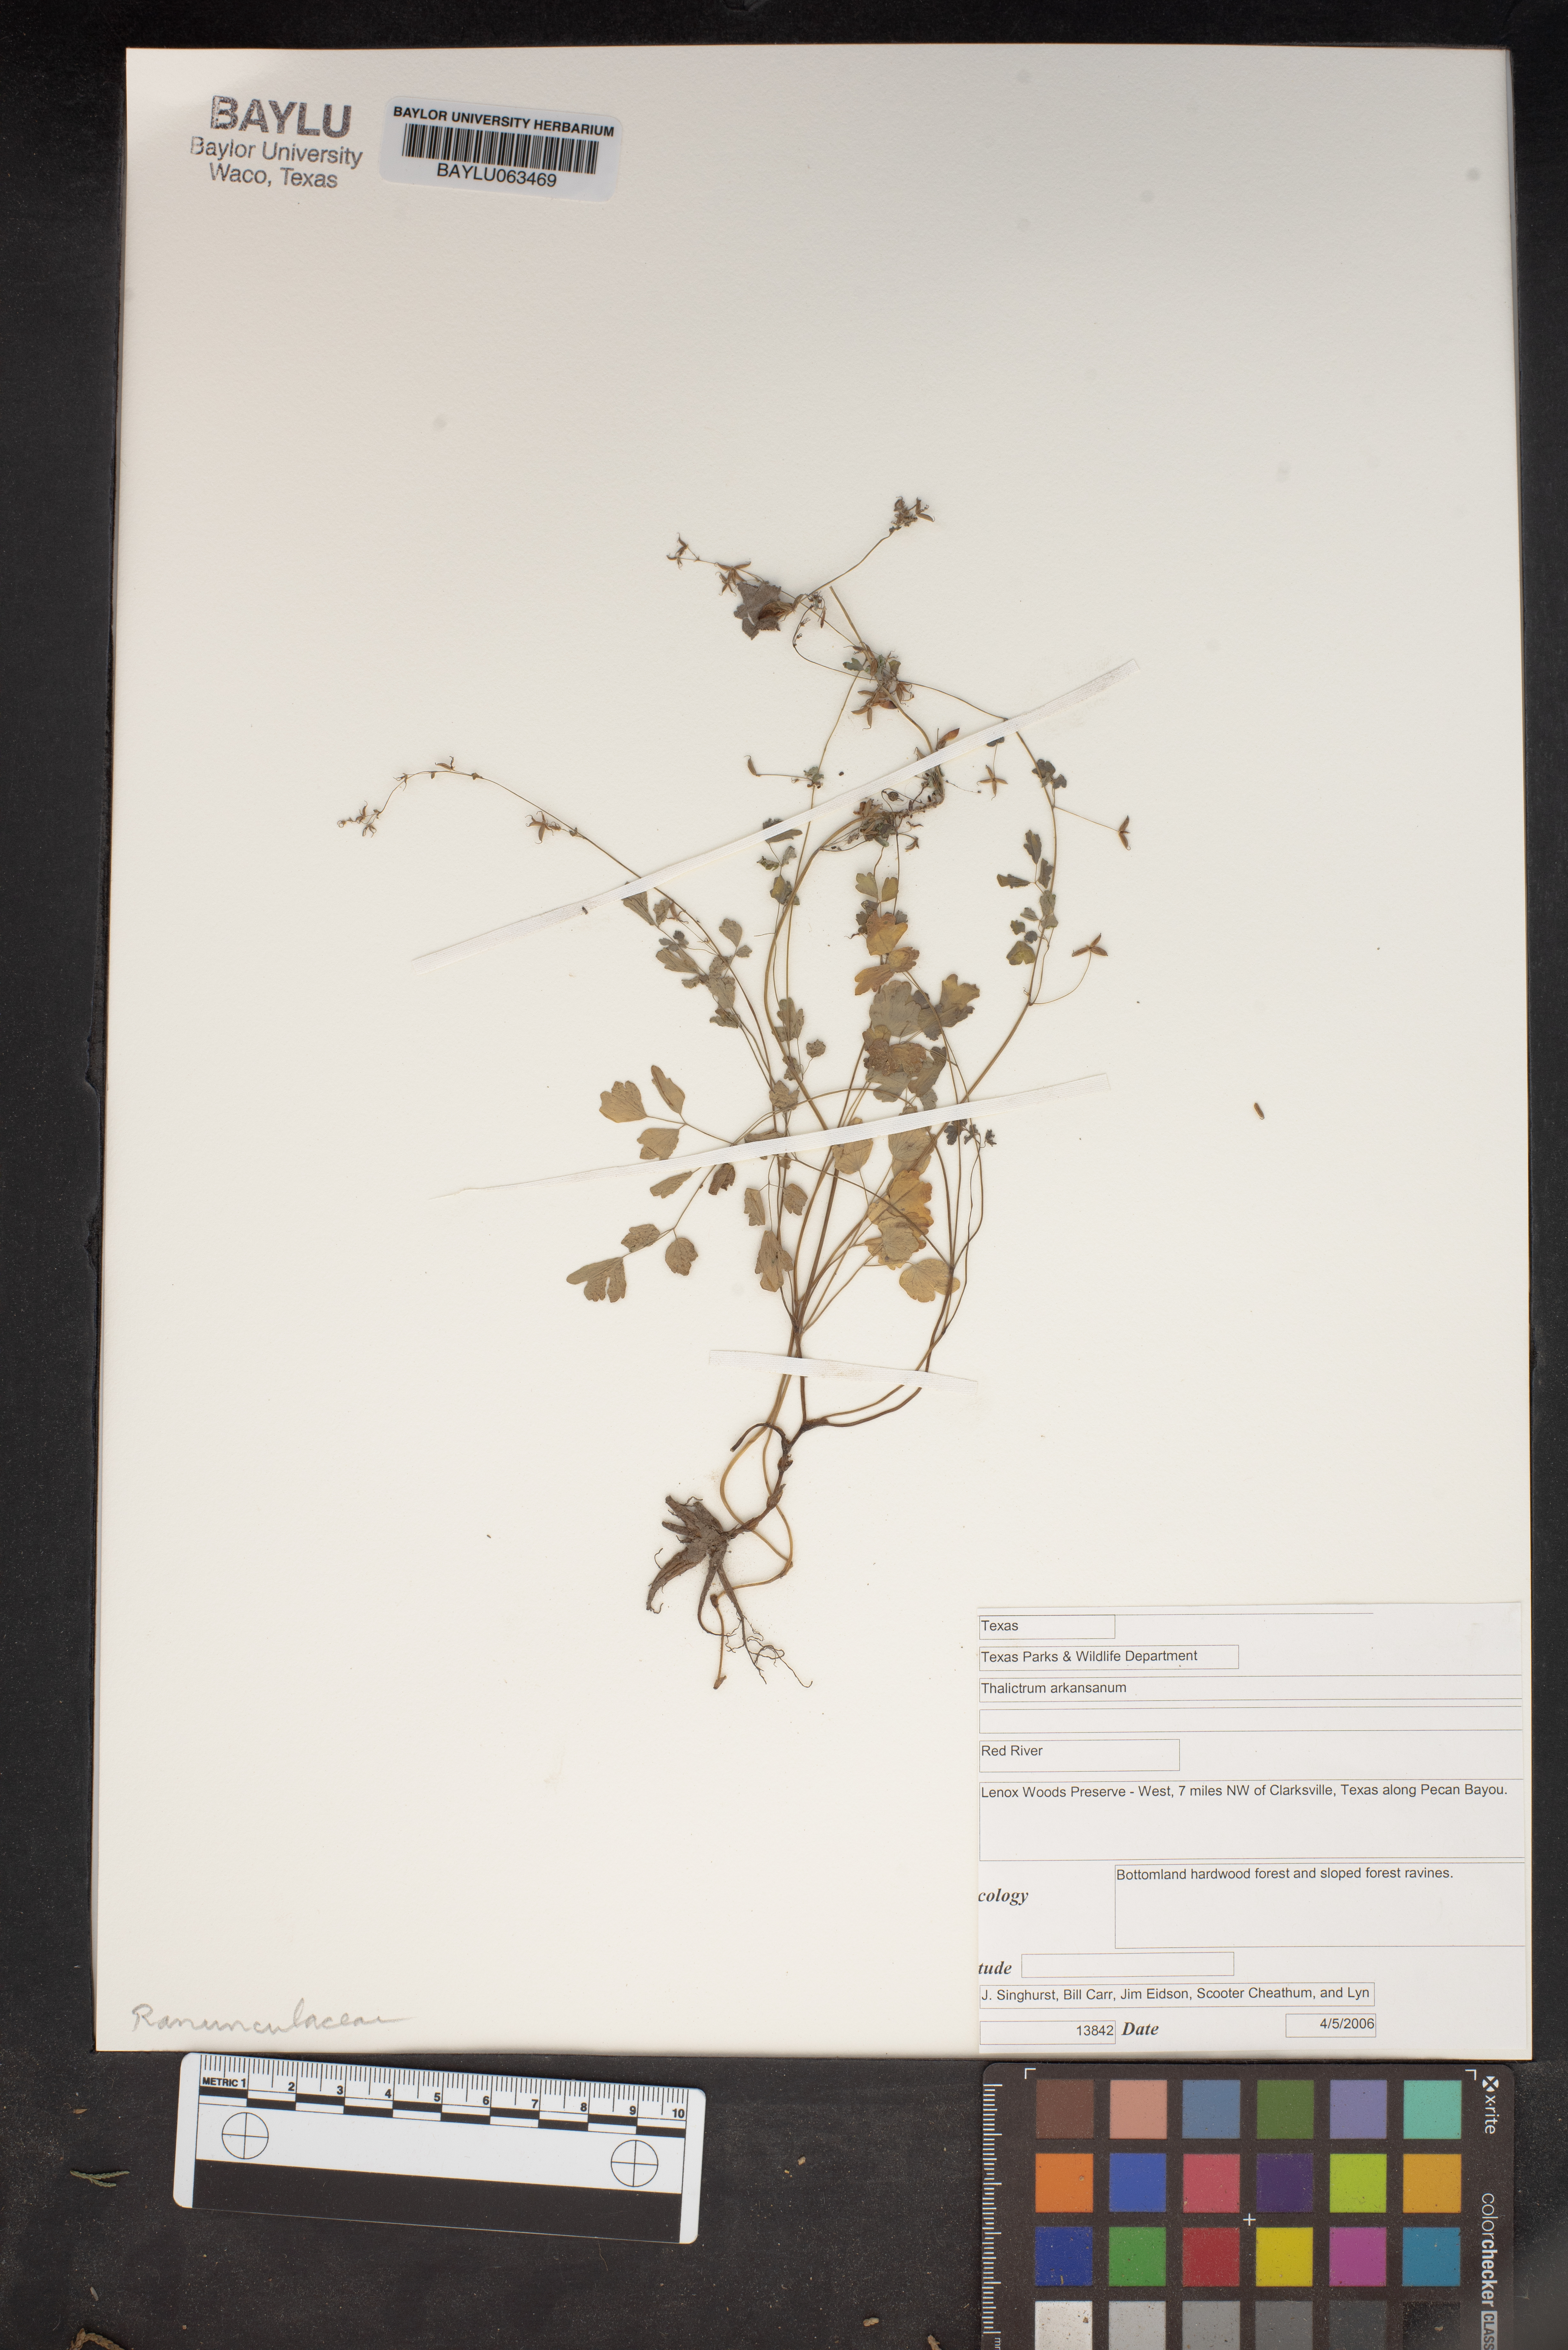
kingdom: Plantae
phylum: Tracheophyta
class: Magnoliopsida
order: Ranunculales
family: Ranunculaceae
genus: Thalictrum
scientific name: Thalictrum arkansanum
